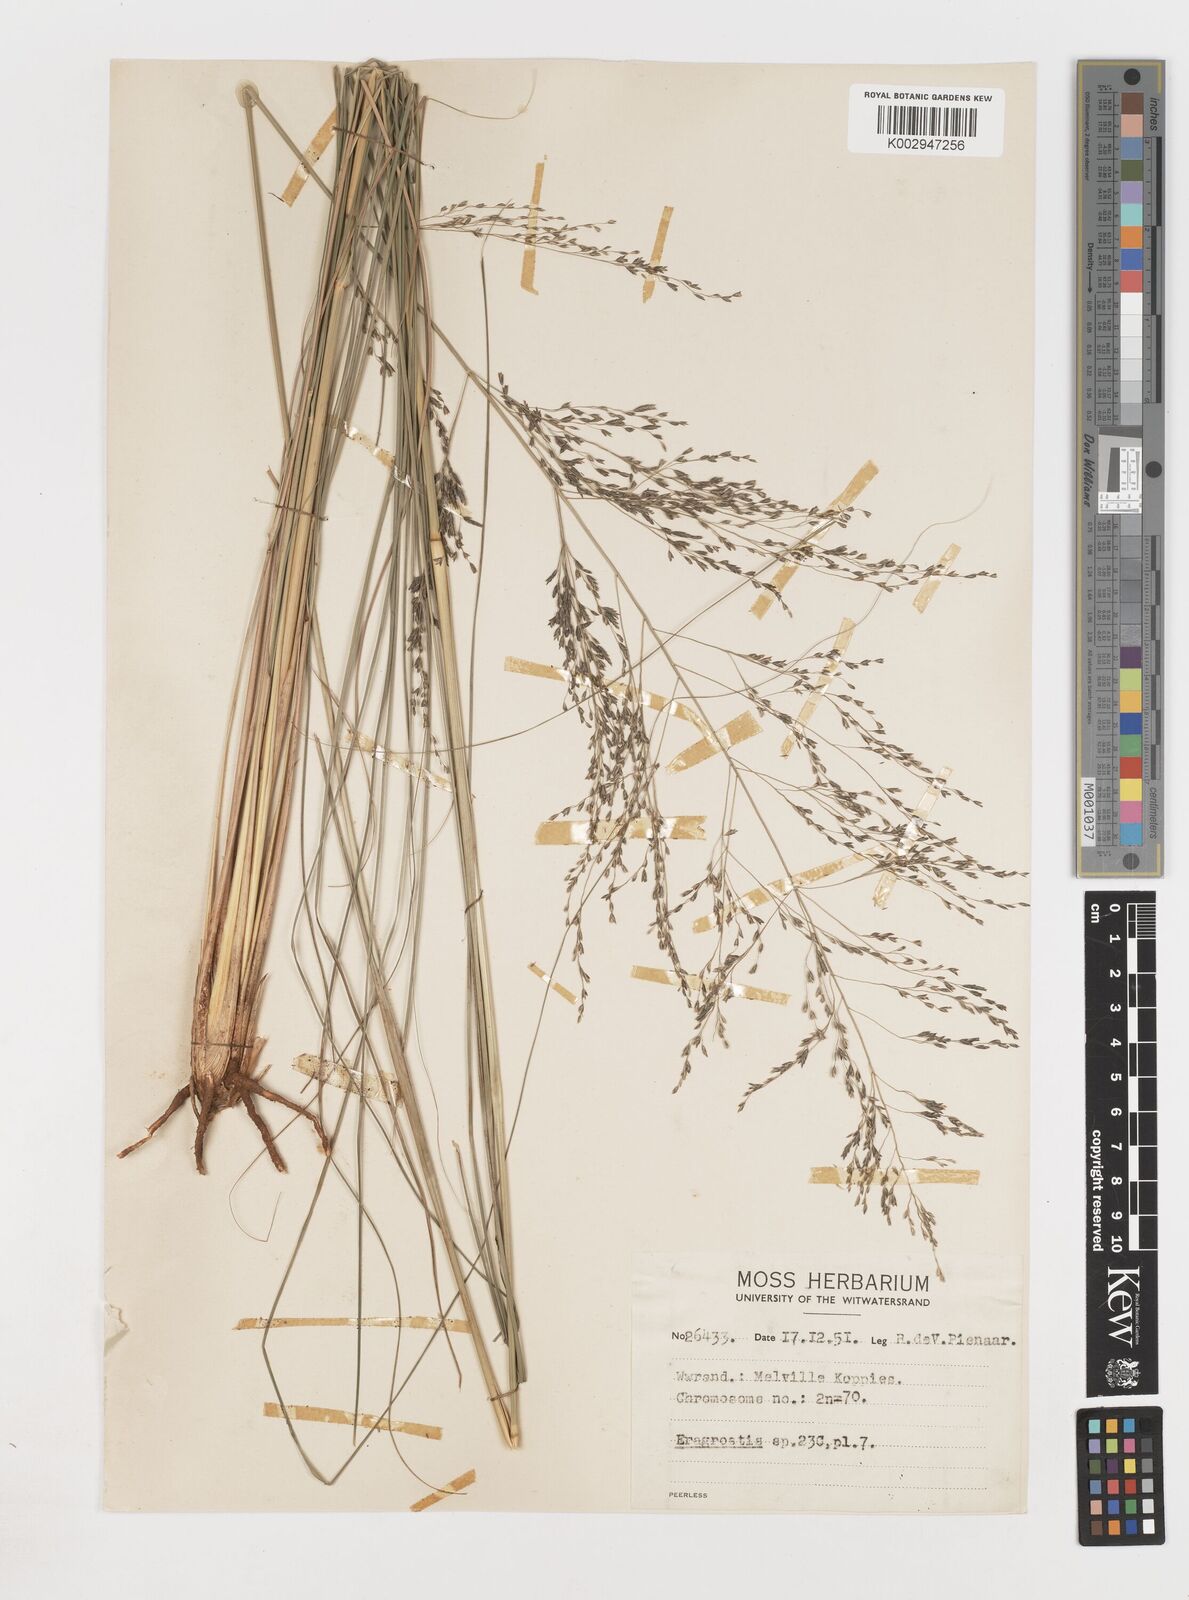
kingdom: Plantae
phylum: Tracheophyta
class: Liliopsida
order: Poales
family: Poaceae
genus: Eragrostis
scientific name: Eragrostis
